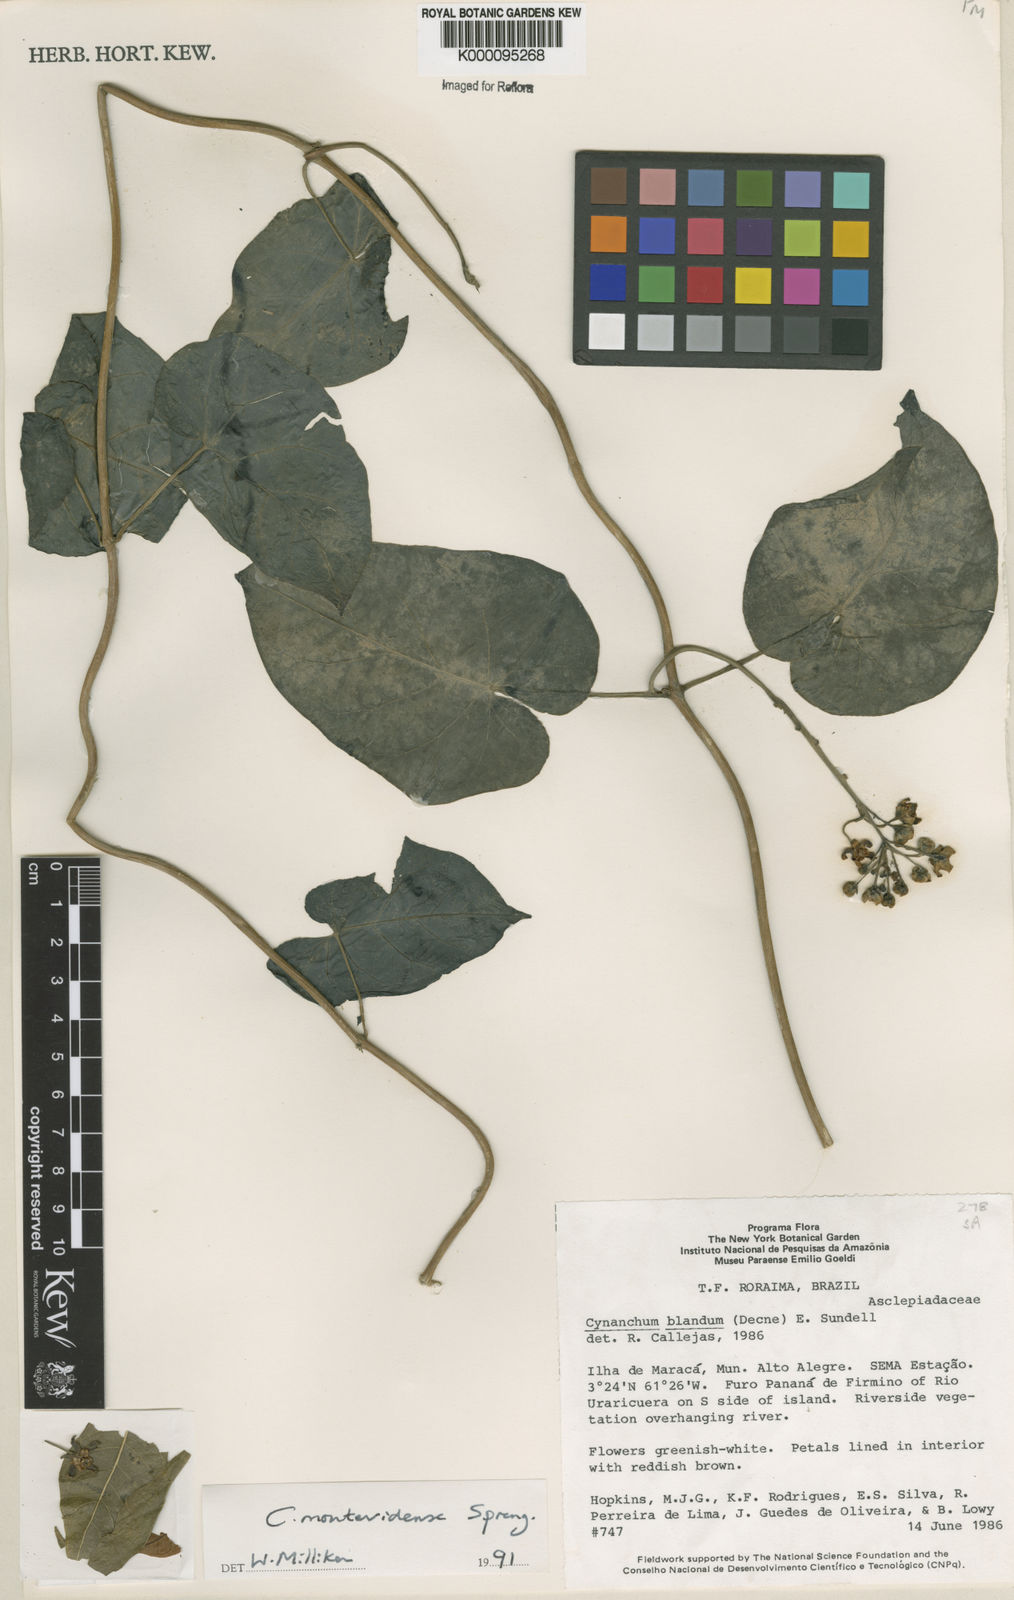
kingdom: Plantae
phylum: Tracheophyta
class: Magnoliopsida
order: Gentianales
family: Apocynaceae
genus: Cynanchum
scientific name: Cynanchum montevidense
